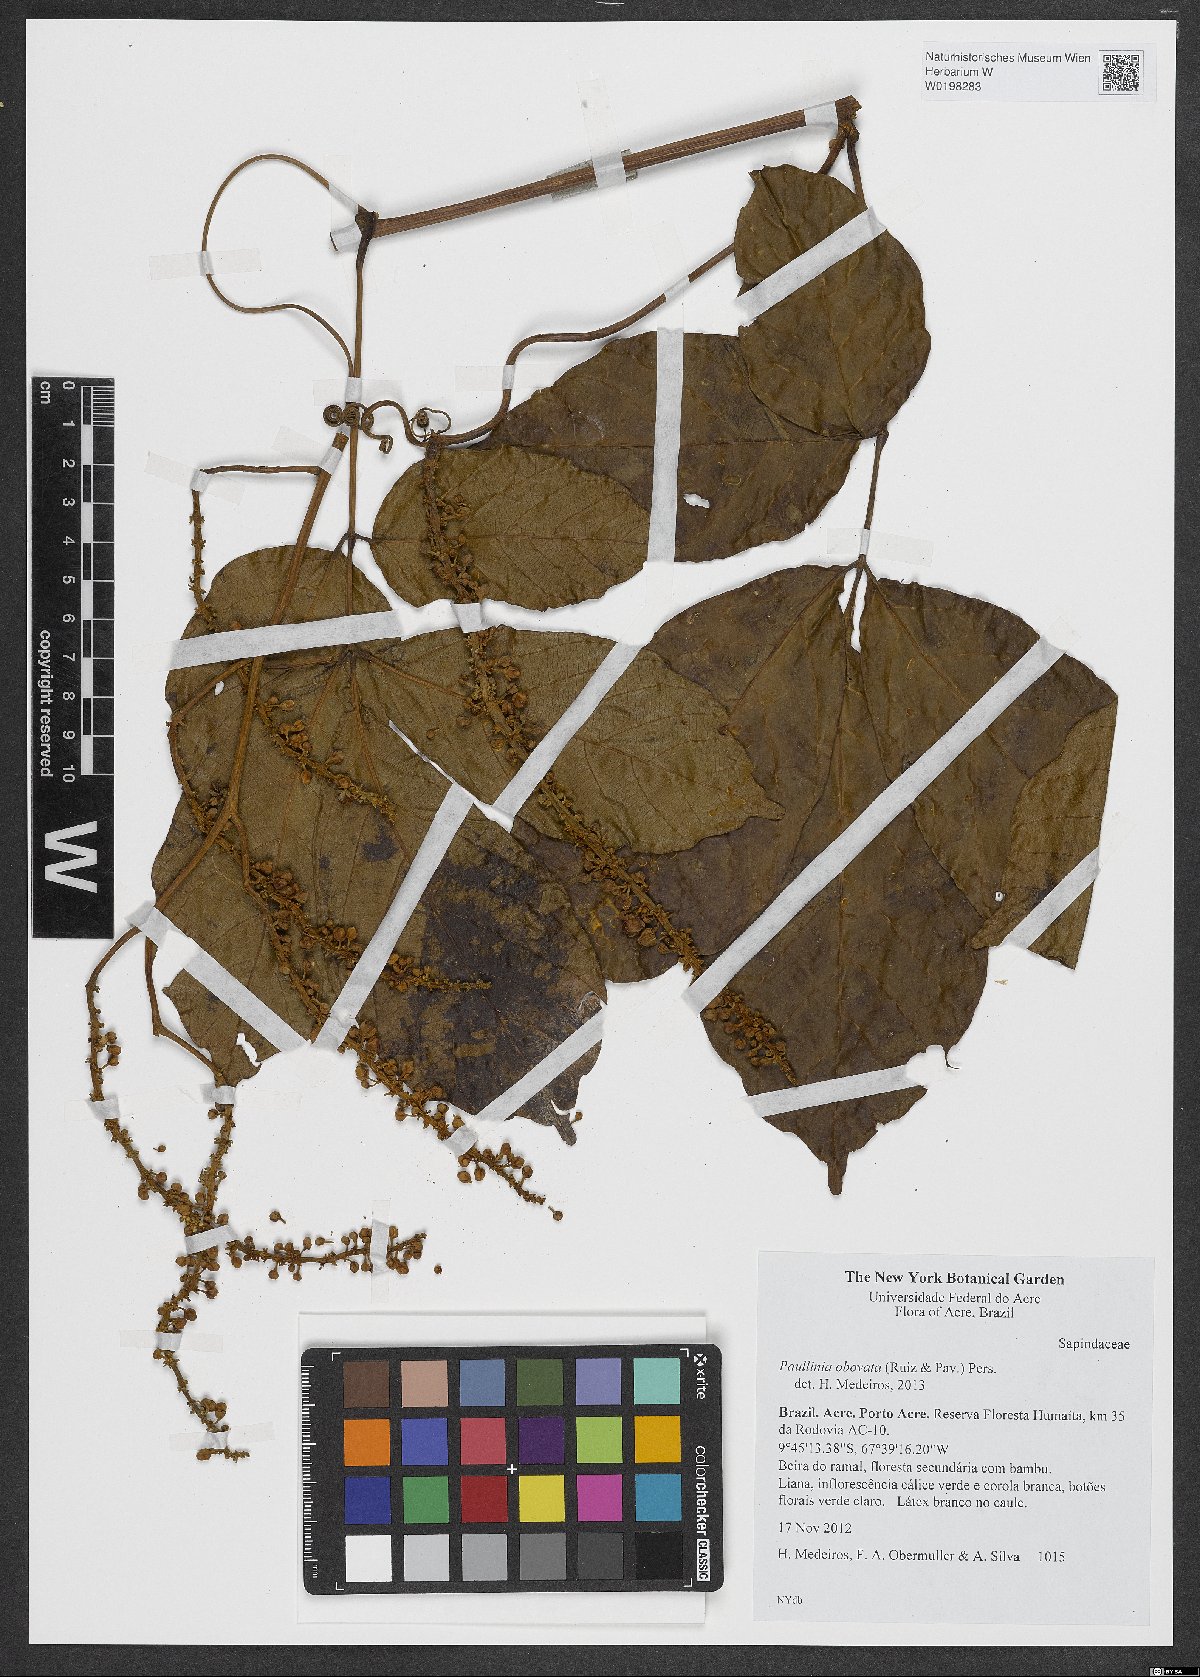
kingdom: Plantae
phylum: Tracheophyta
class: Magnoliopsida
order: Sapindales
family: Sapindaceae
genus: Paullinia
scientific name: Paullinia obovata
